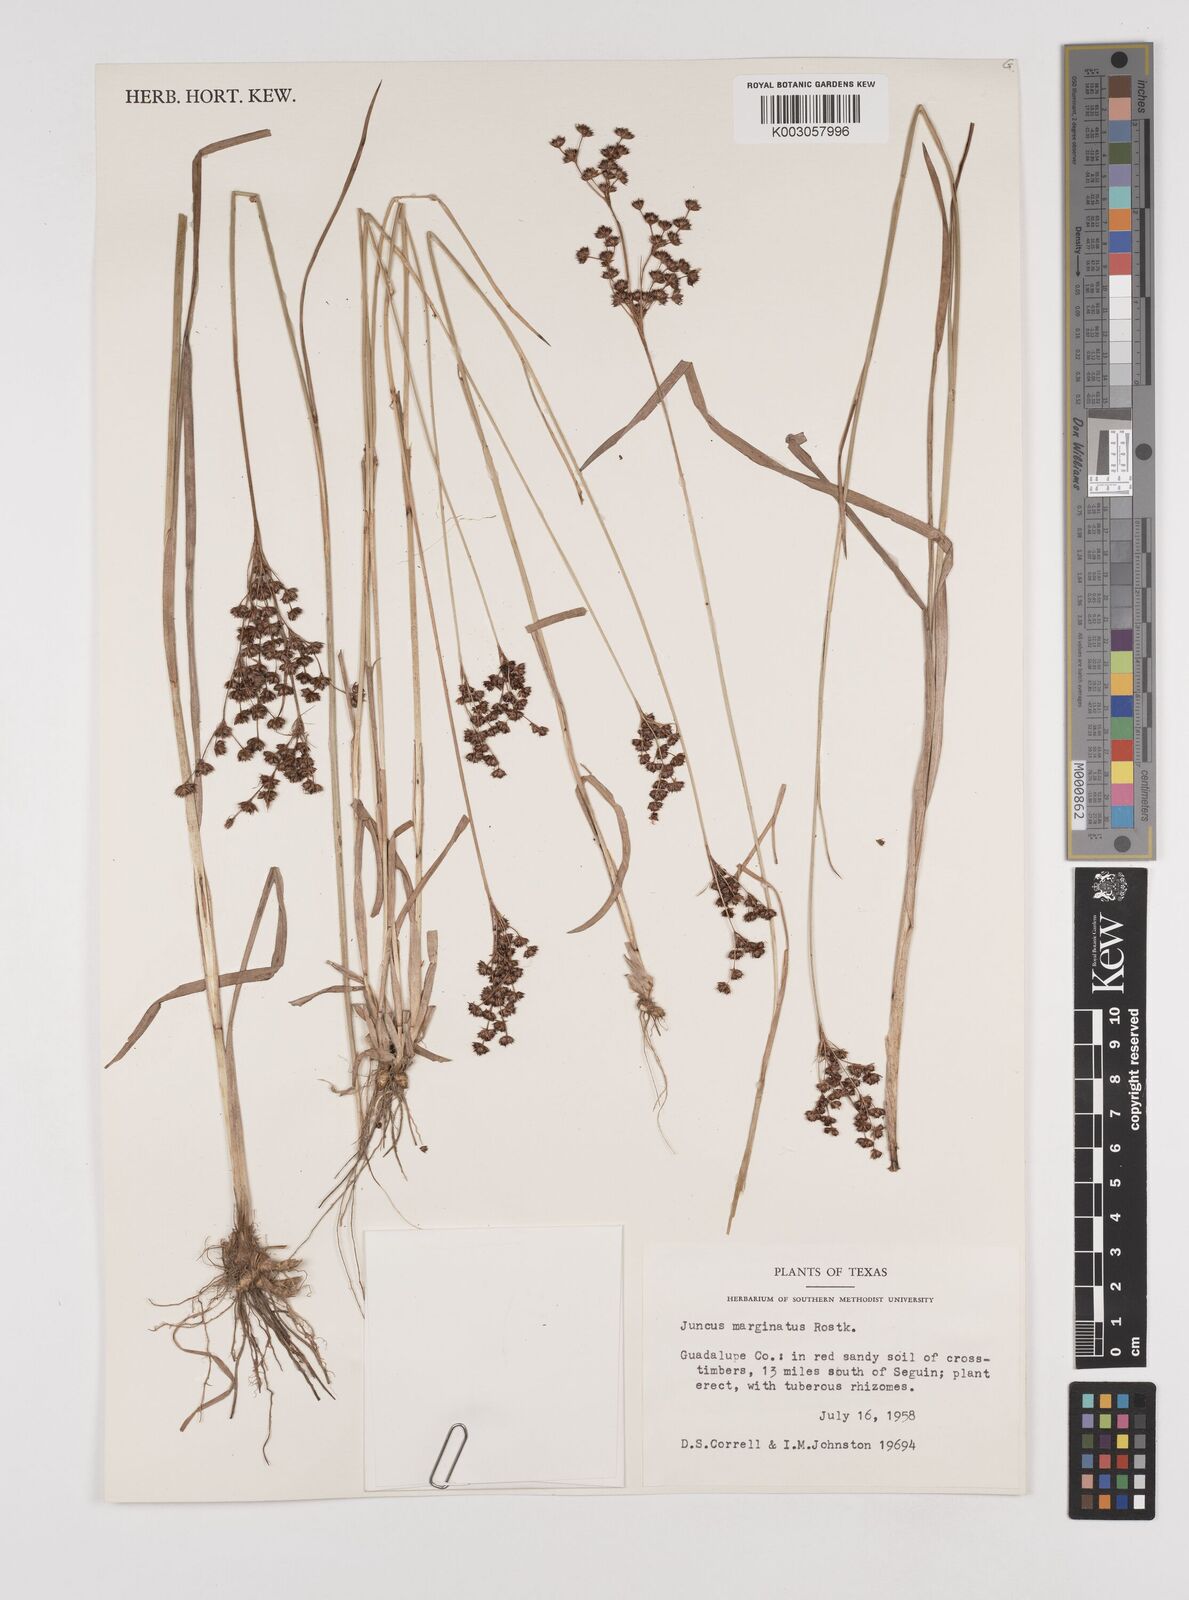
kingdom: Plantae
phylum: Tracheophyta
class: Liliopsida
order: Poales
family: Juncaceae
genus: Juncus
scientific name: Juncus marginatus
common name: Grass-leaf rush
